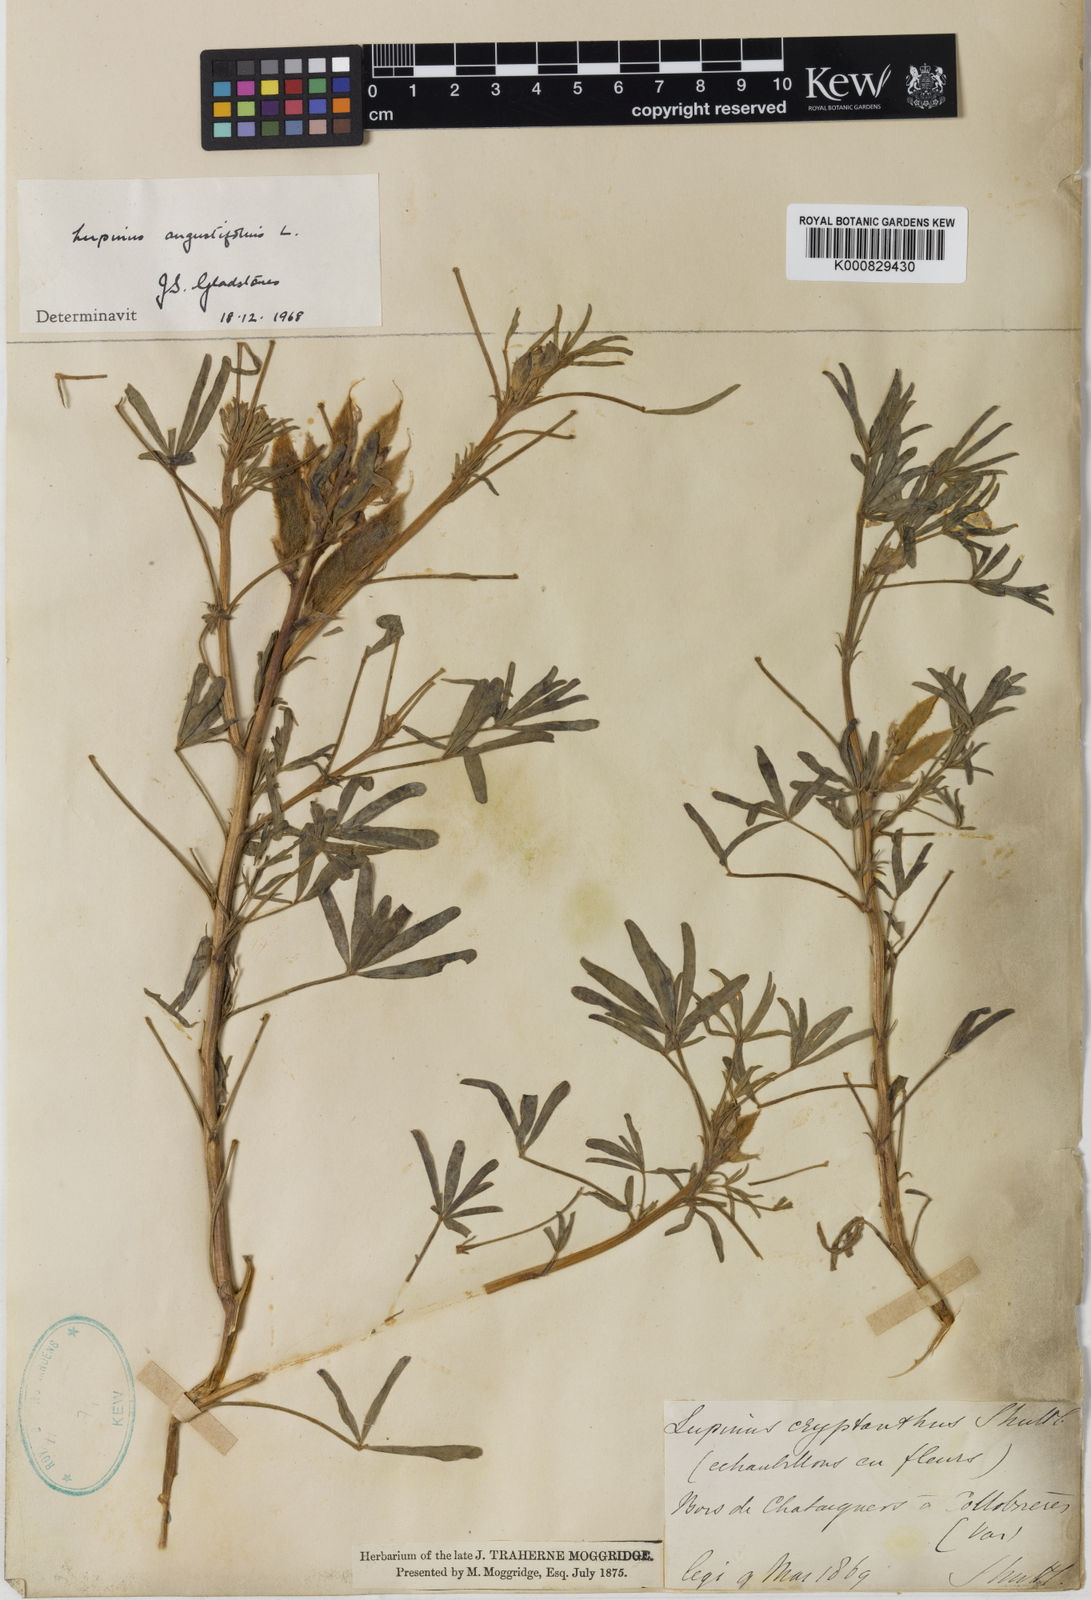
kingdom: Plantae
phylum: Tracheophyta
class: Magnoliopsida
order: Fabales
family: Fabaceae
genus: Lupinus
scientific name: Lupinus
